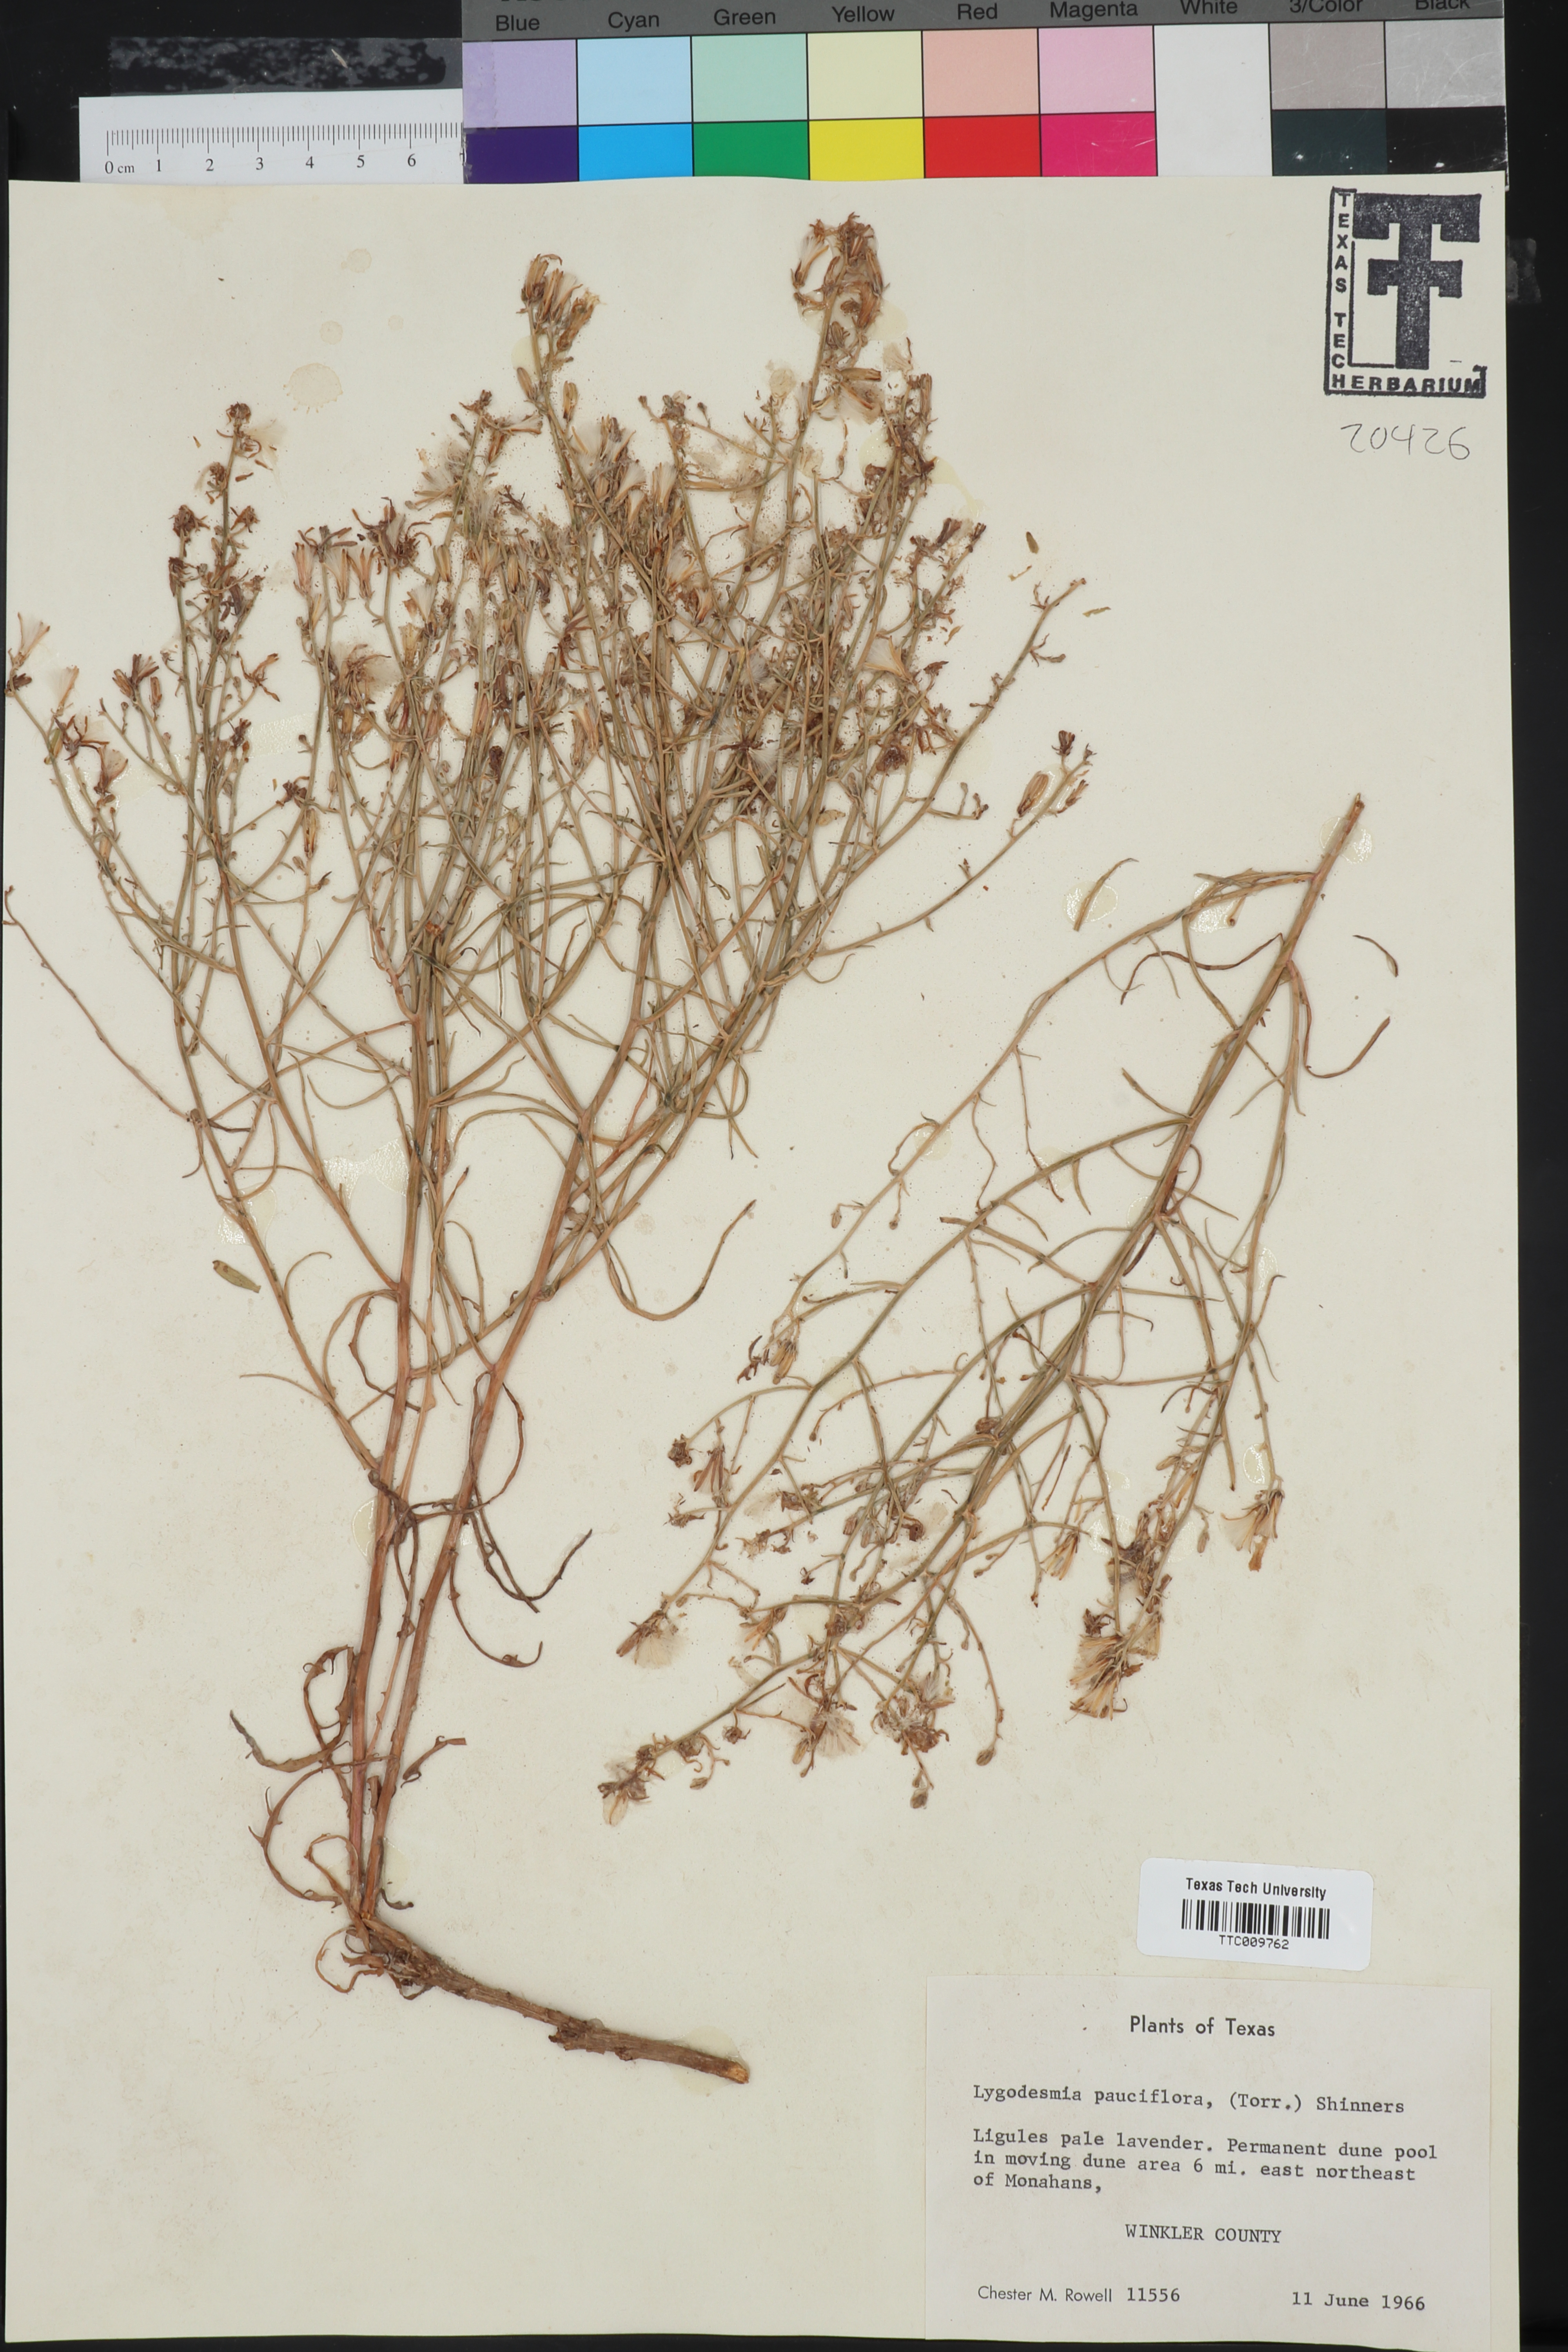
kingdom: Plantae
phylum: Tracheophyta
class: Magnoliopsida
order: Asterales
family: Asteraceae
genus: Stephanomeria
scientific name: Stephanomeria pauciflora
